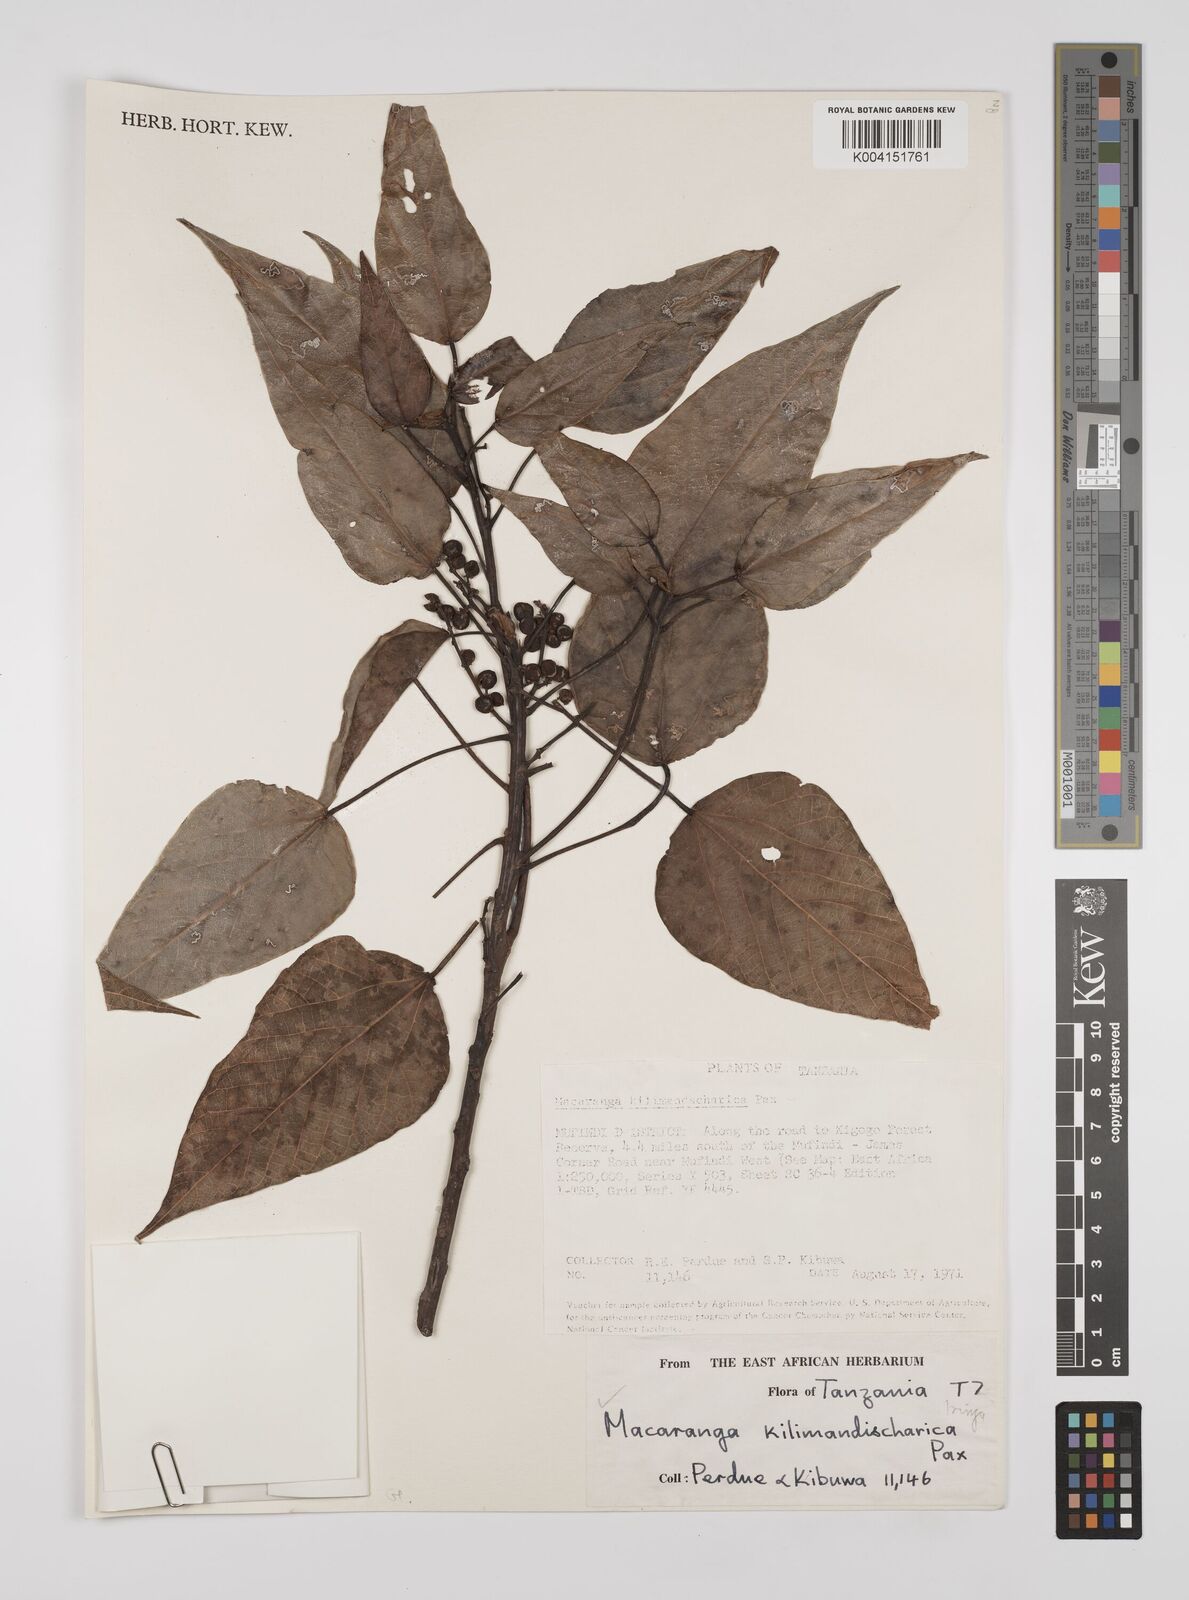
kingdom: Plantae
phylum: Tracheophyta
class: Magnoliopsida
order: Malpighiales
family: Euphorbiaceae
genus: Macaranga
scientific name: Macaranga kilimandscharica
